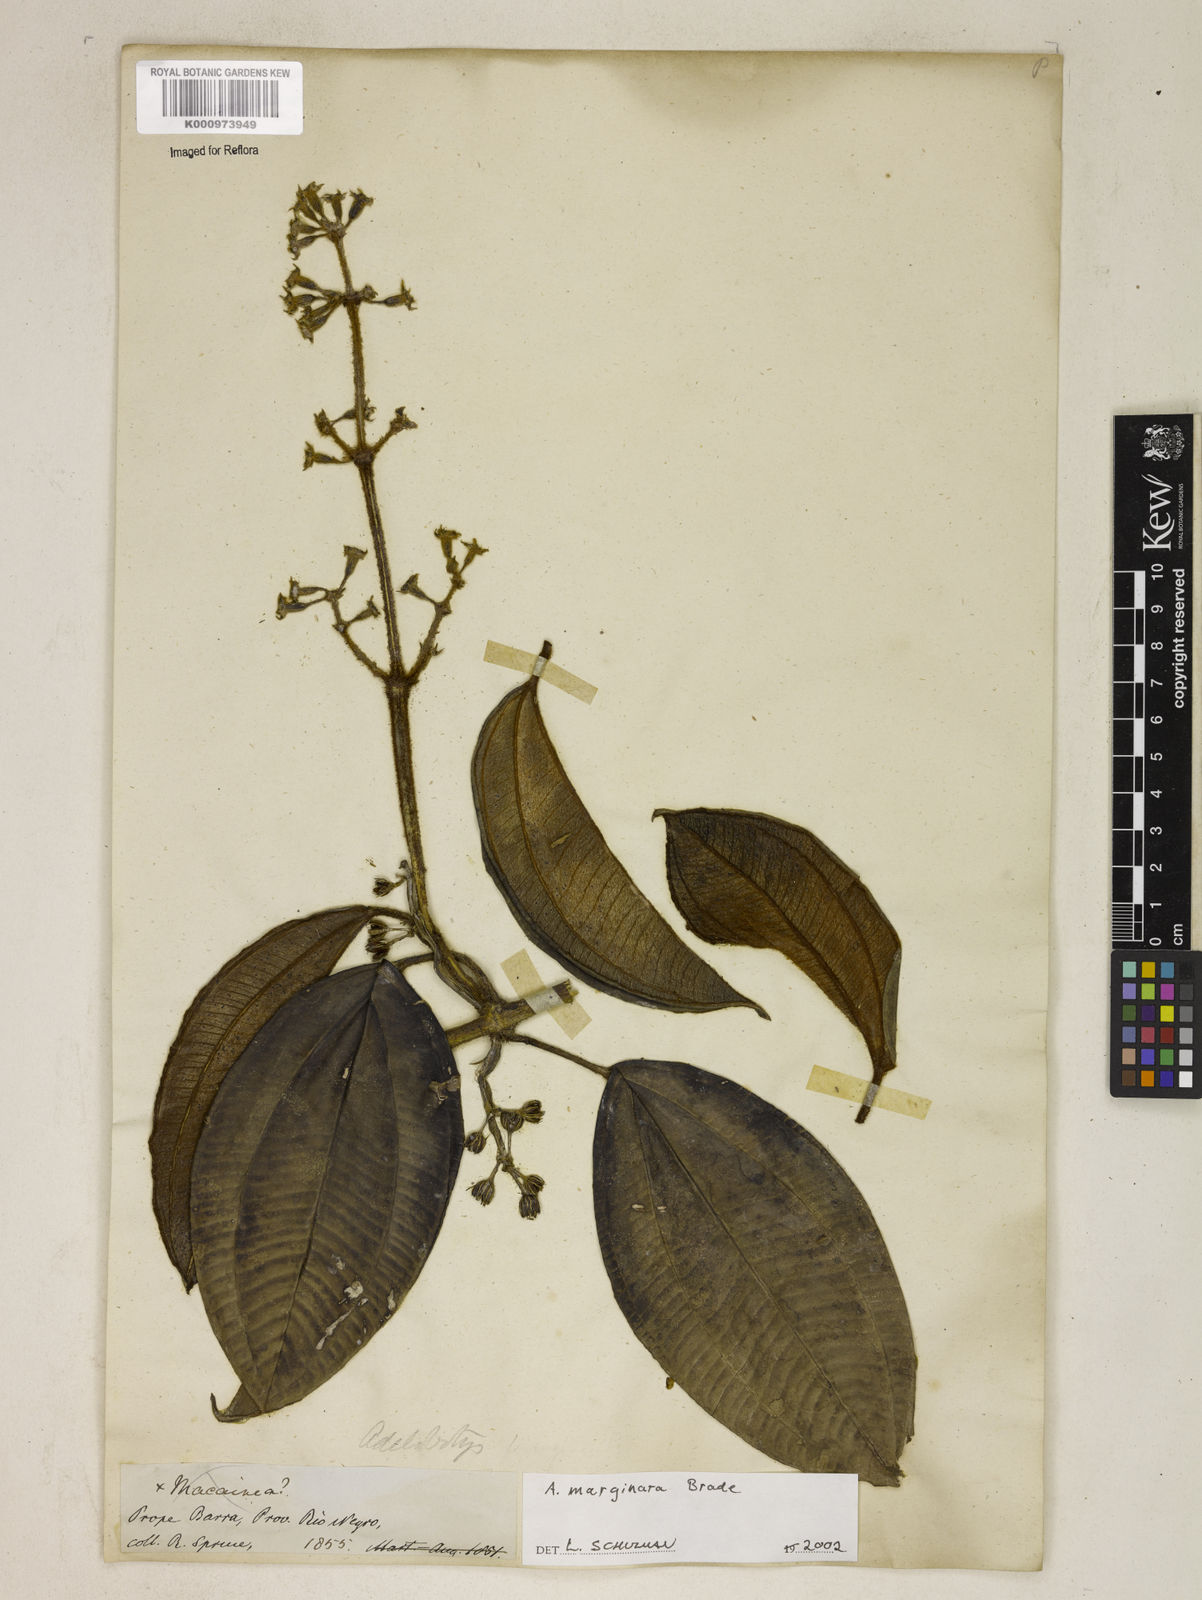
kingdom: Plantae
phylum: Tracheophyta
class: Magnoliopsida
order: Myrtales
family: Melastomataceae
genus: Adelobotrys
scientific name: Adelobotrys marginatus
